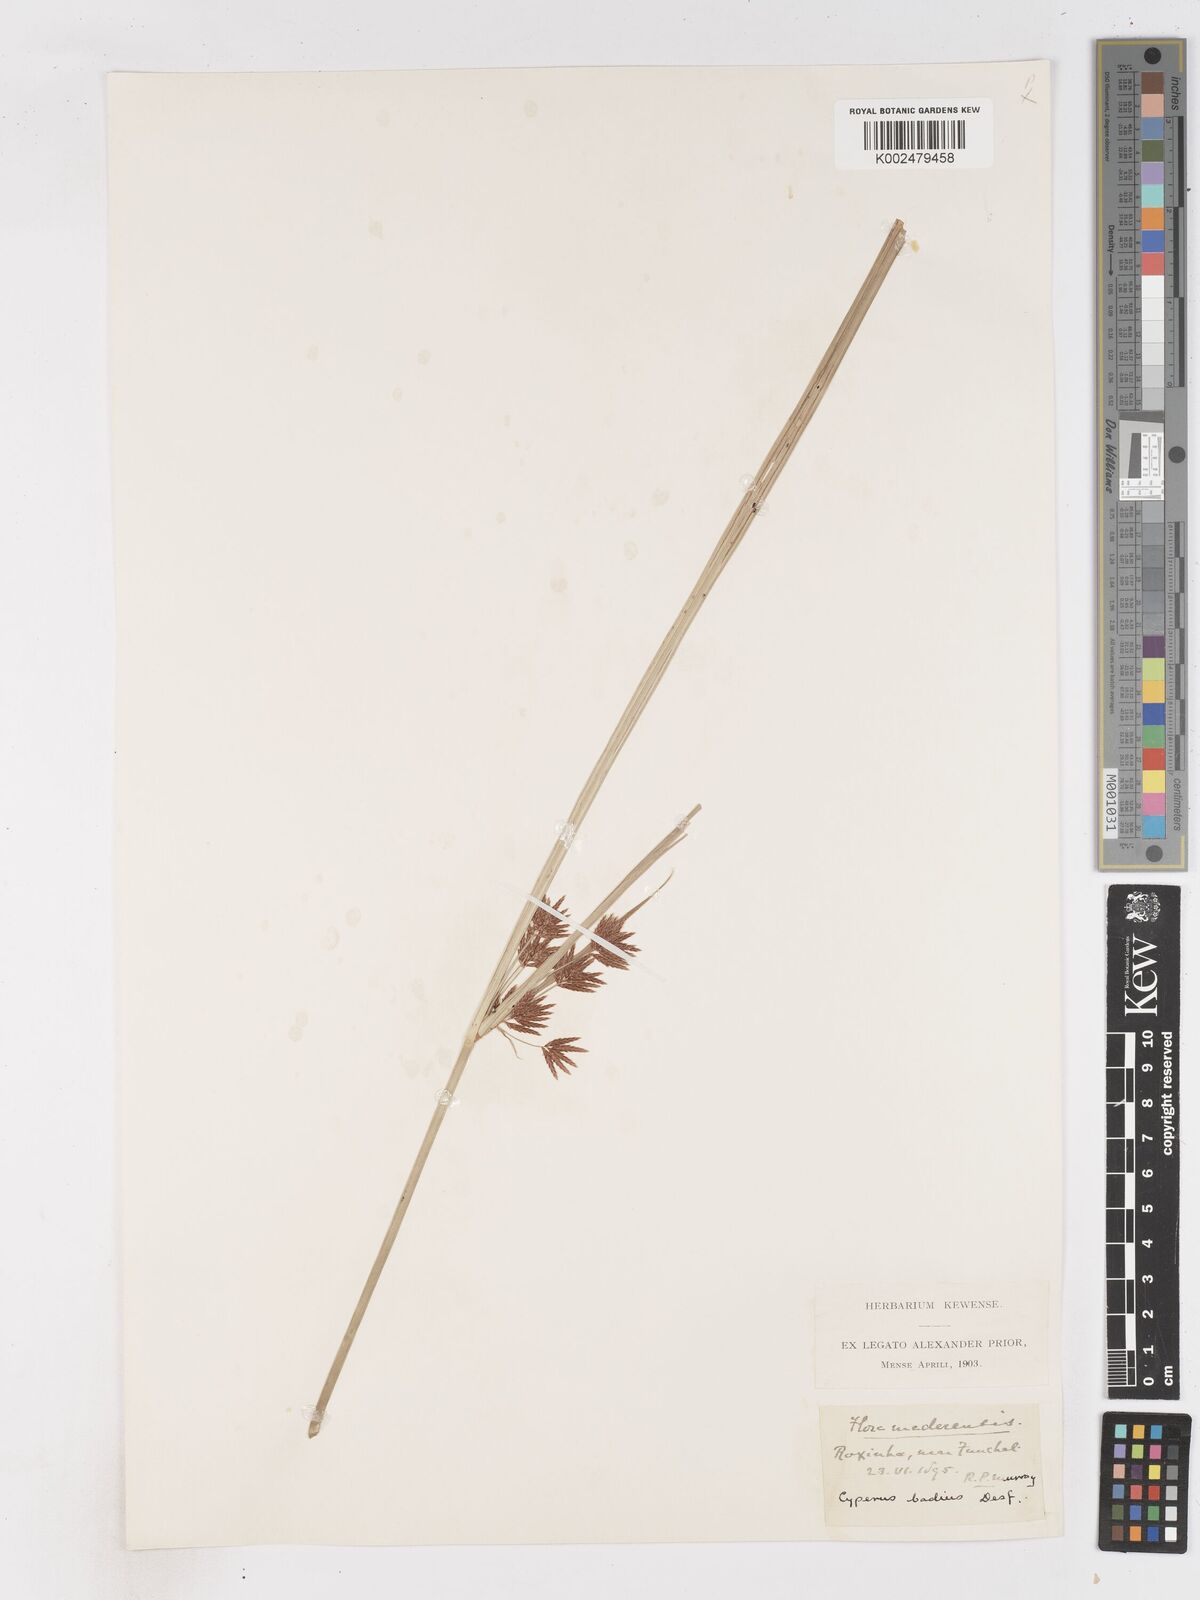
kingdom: Plantae
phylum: Tracheophyta
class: Liliopsida
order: Poales
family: Cyperaceae
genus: Cyperus
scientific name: Cyperus longus
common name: Galingale
